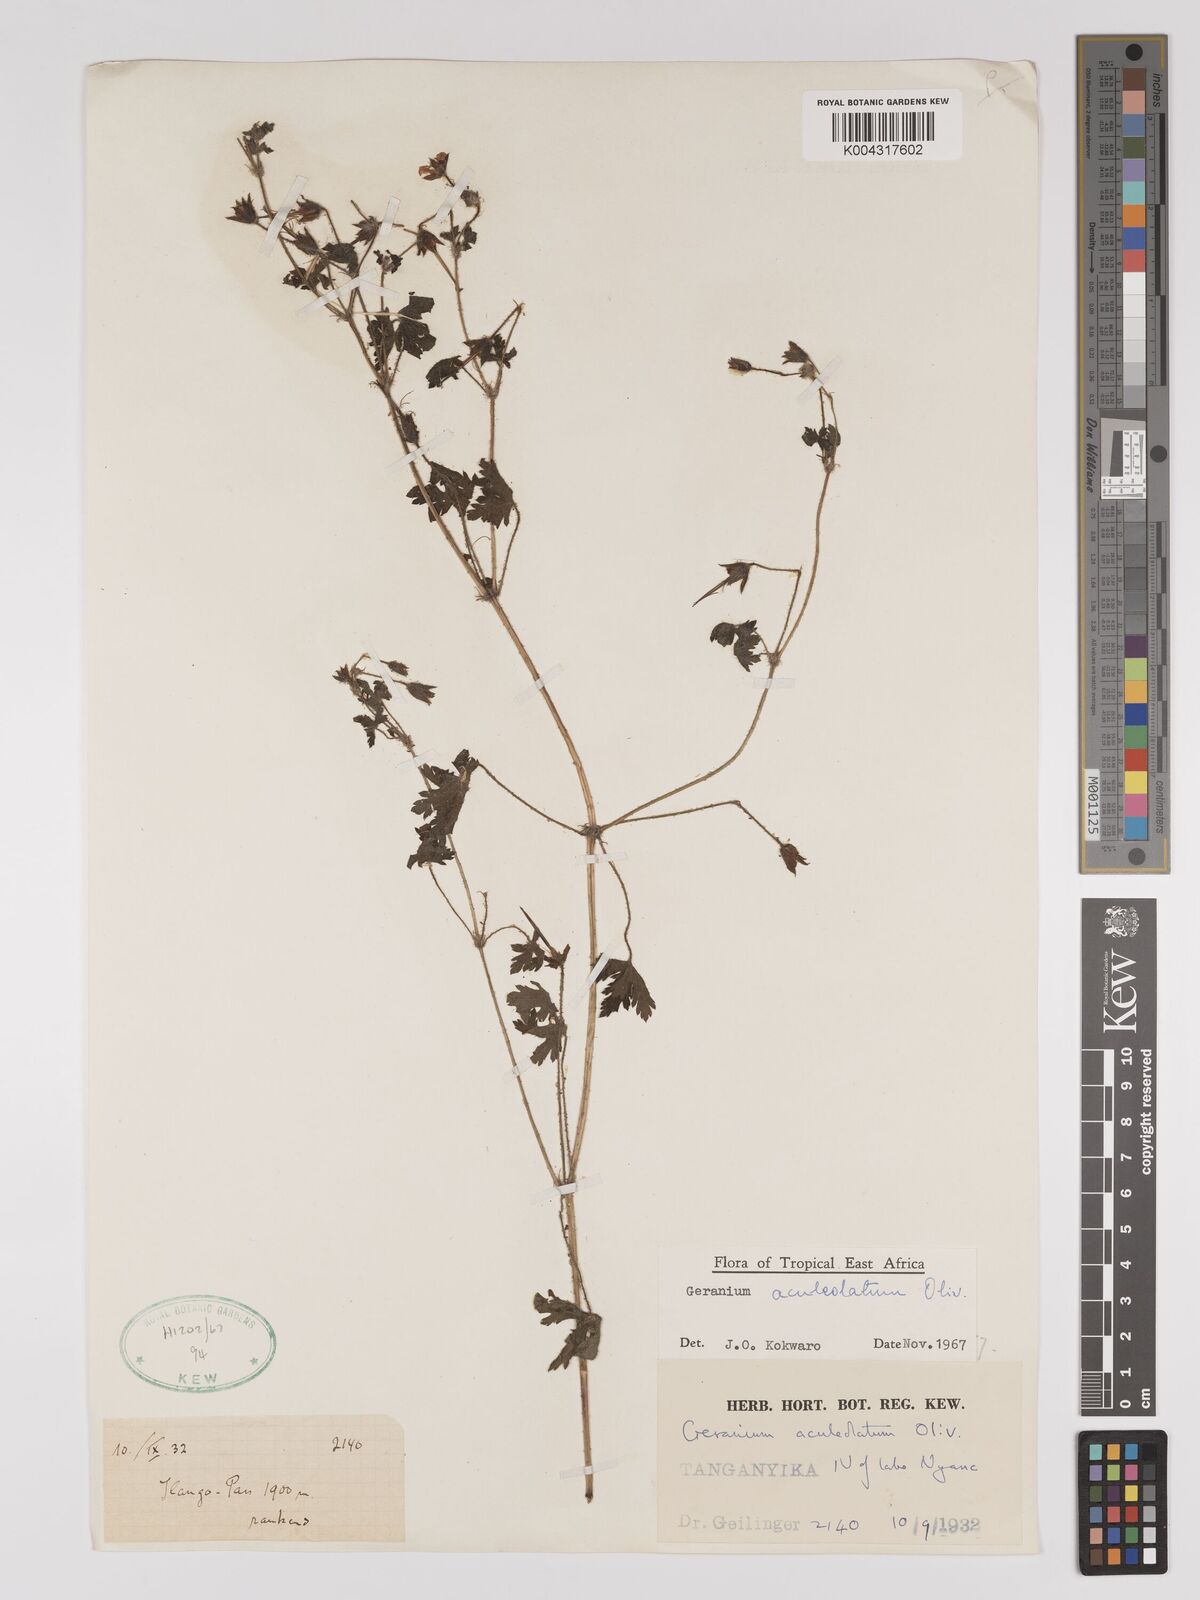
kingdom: Plantae
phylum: Tracheophyta
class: Magnoliopsida
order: Geraniales
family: Geraniaceae
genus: Geranium
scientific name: Geranium aculeolatum
